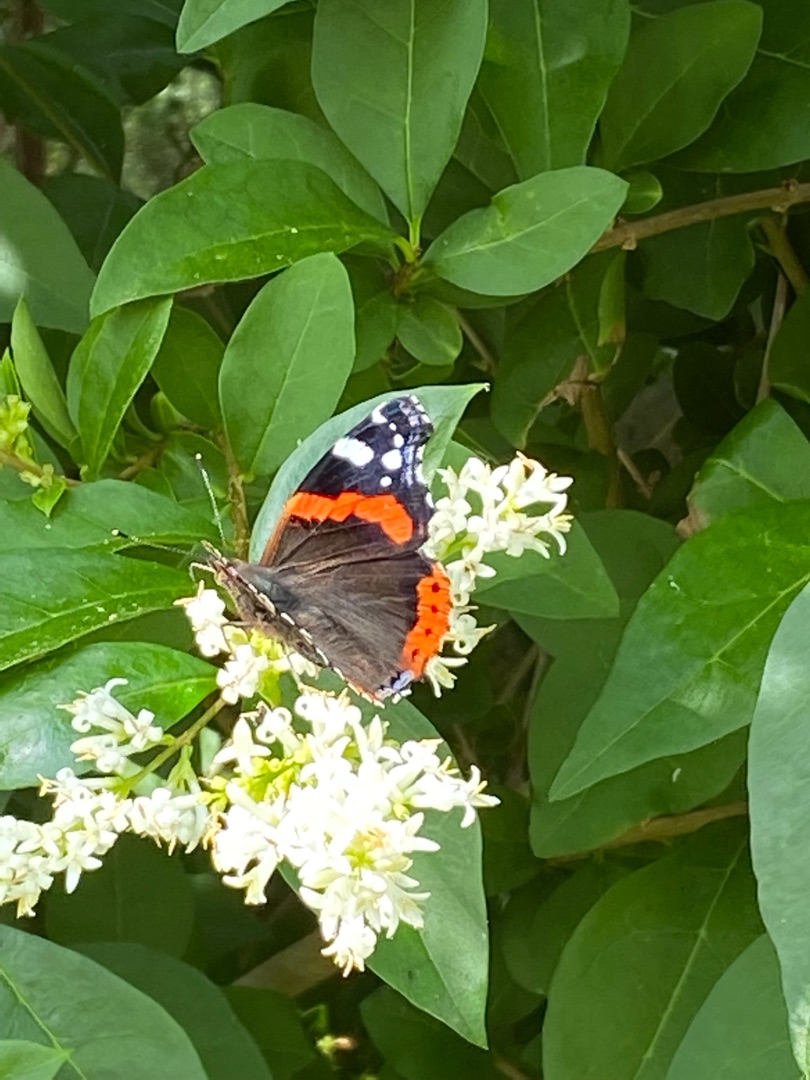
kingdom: Animalia
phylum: Arthropoda
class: Insecta
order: Lepidoptera
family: Nymphalidae
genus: Vanessa
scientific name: Vanessa atalanta
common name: Admiral
